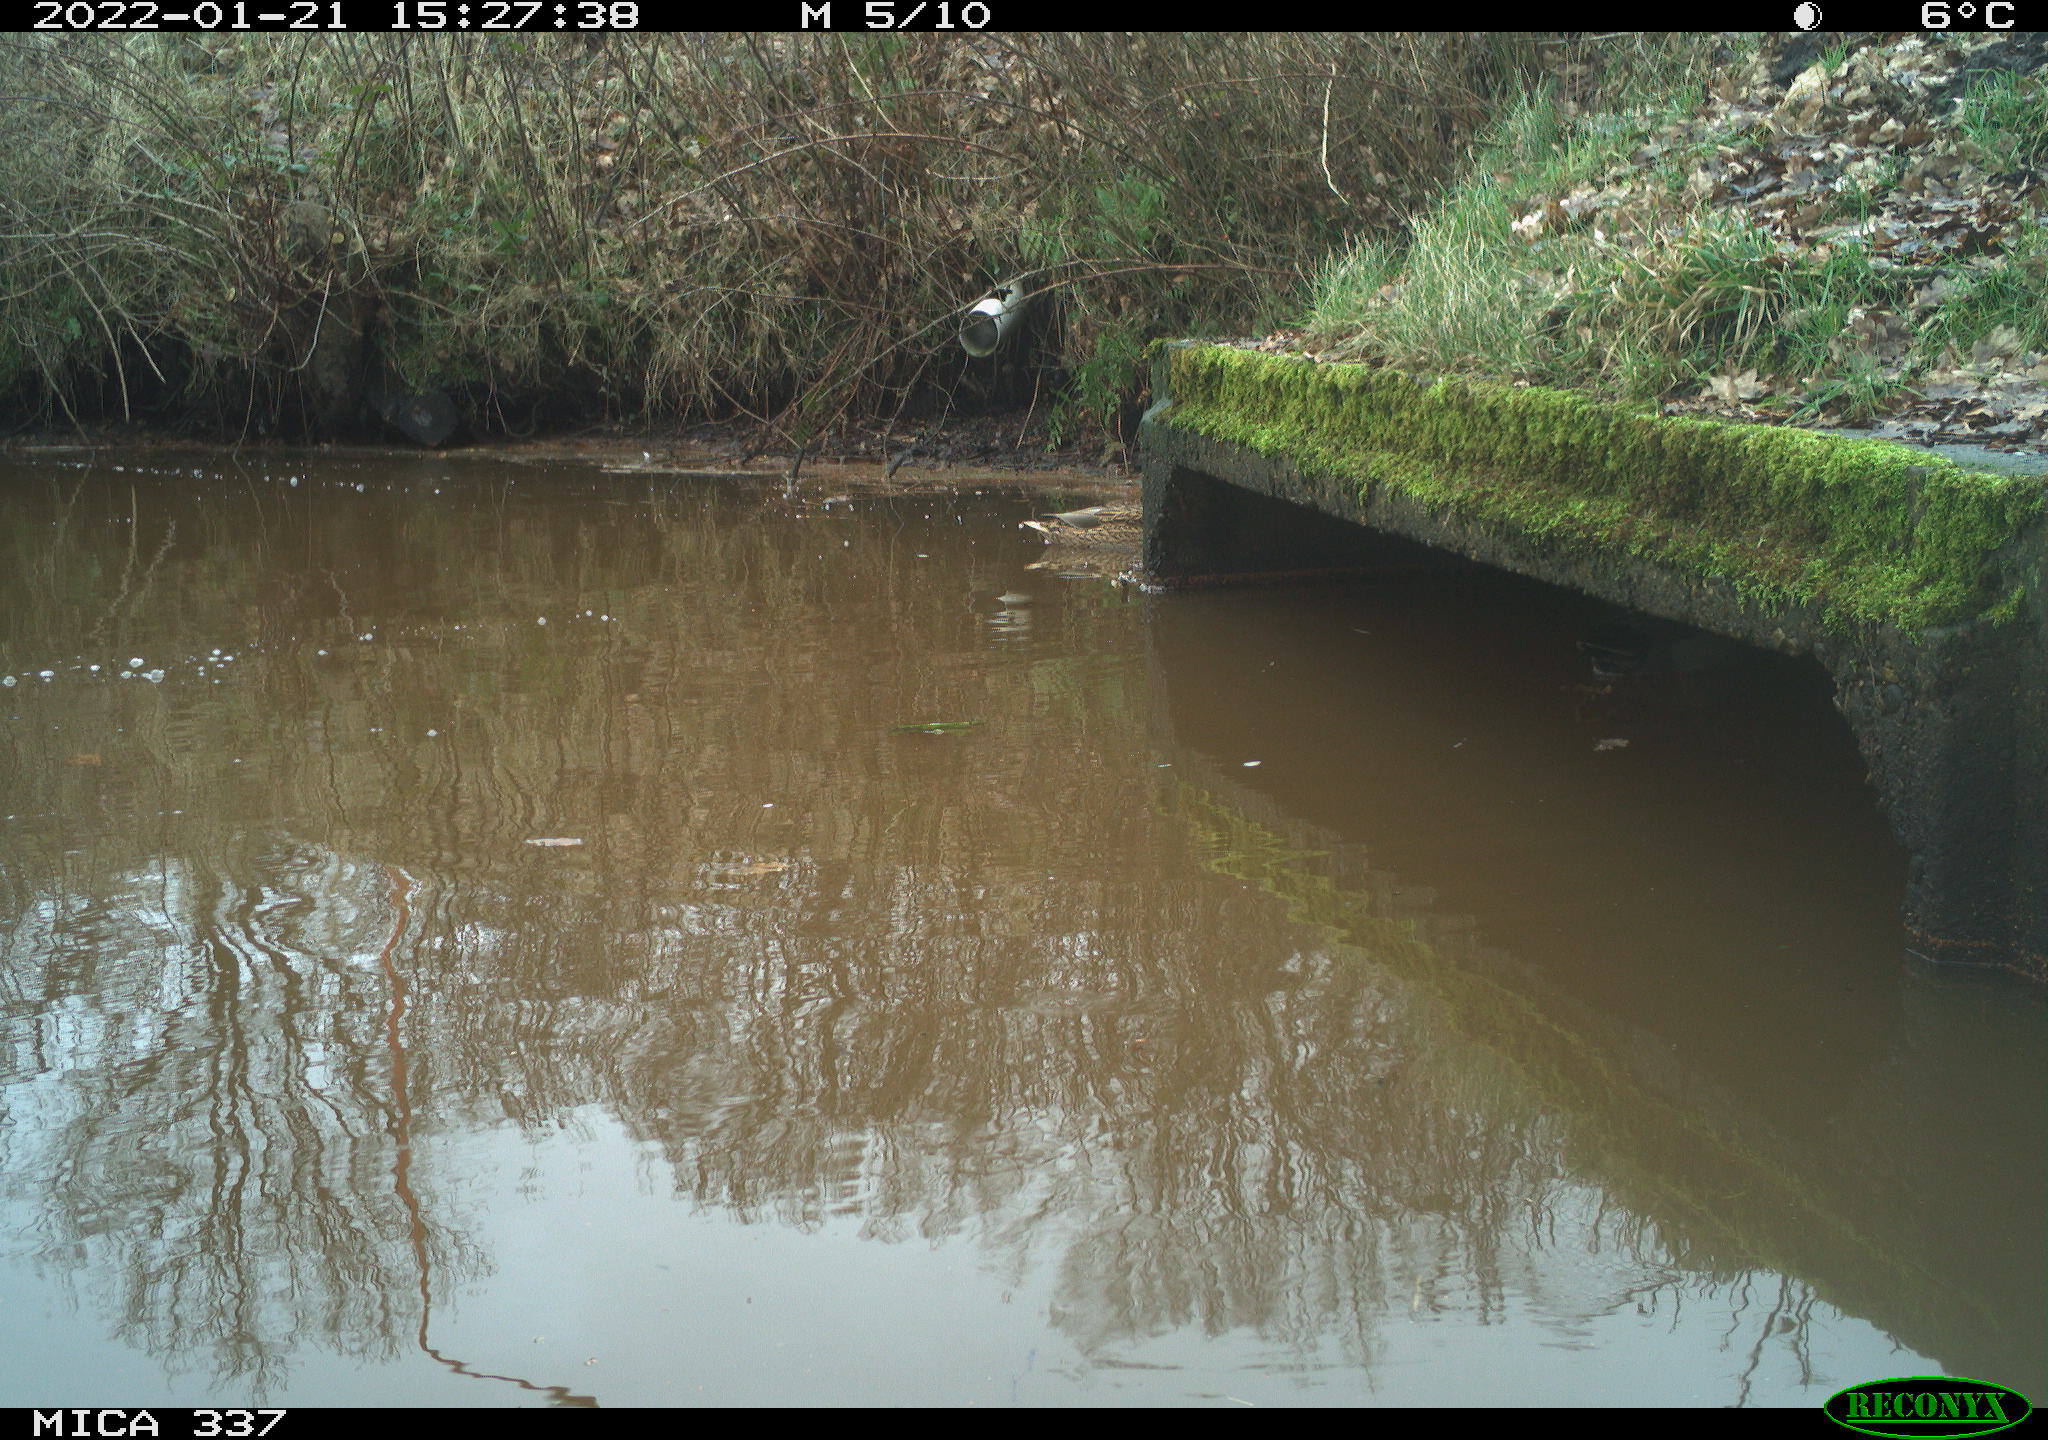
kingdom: Animalia
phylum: Chordata
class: Aves
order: Anseriformes
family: Anatidae
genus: Anas
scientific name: Anas platyrhynchos
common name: Mallard
